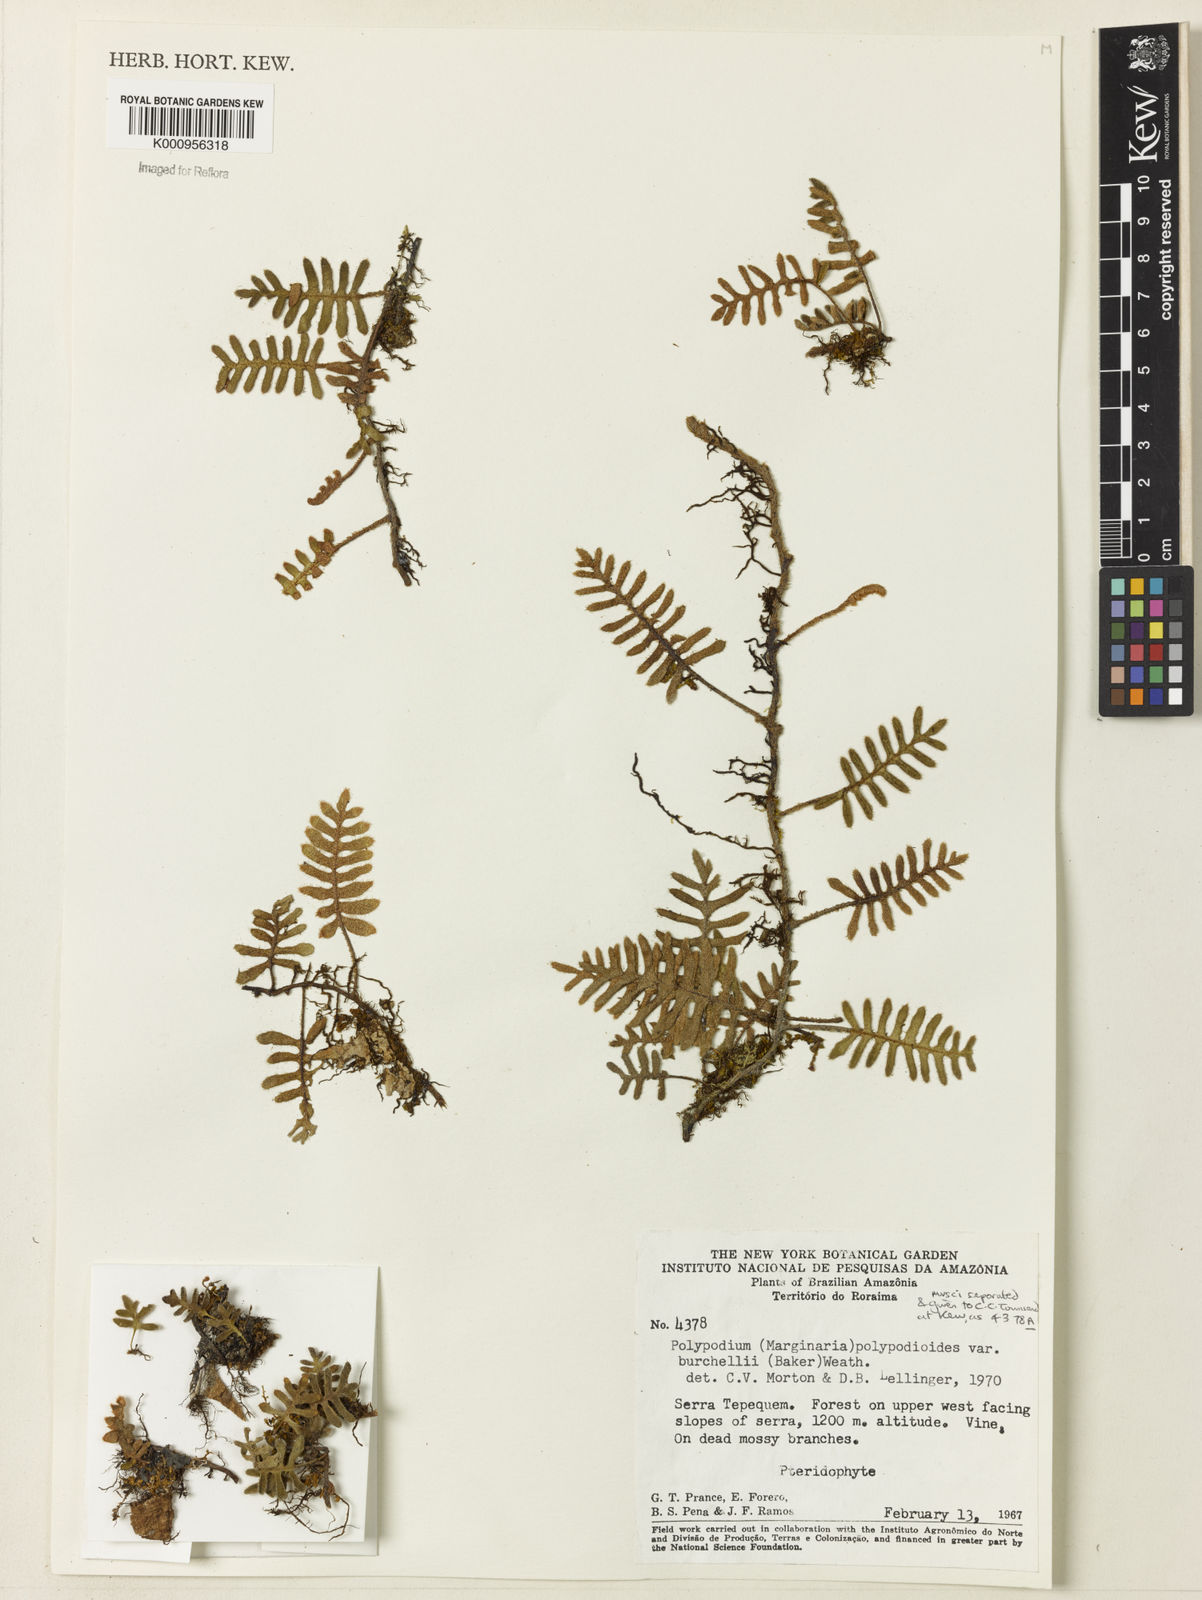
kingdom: Plantae
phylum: Tracheophyta
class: Polypodiopsida
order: Polypodiales
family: Polypodiaceae
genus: Pleopeltis
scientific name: Pleopeltis burchellii
